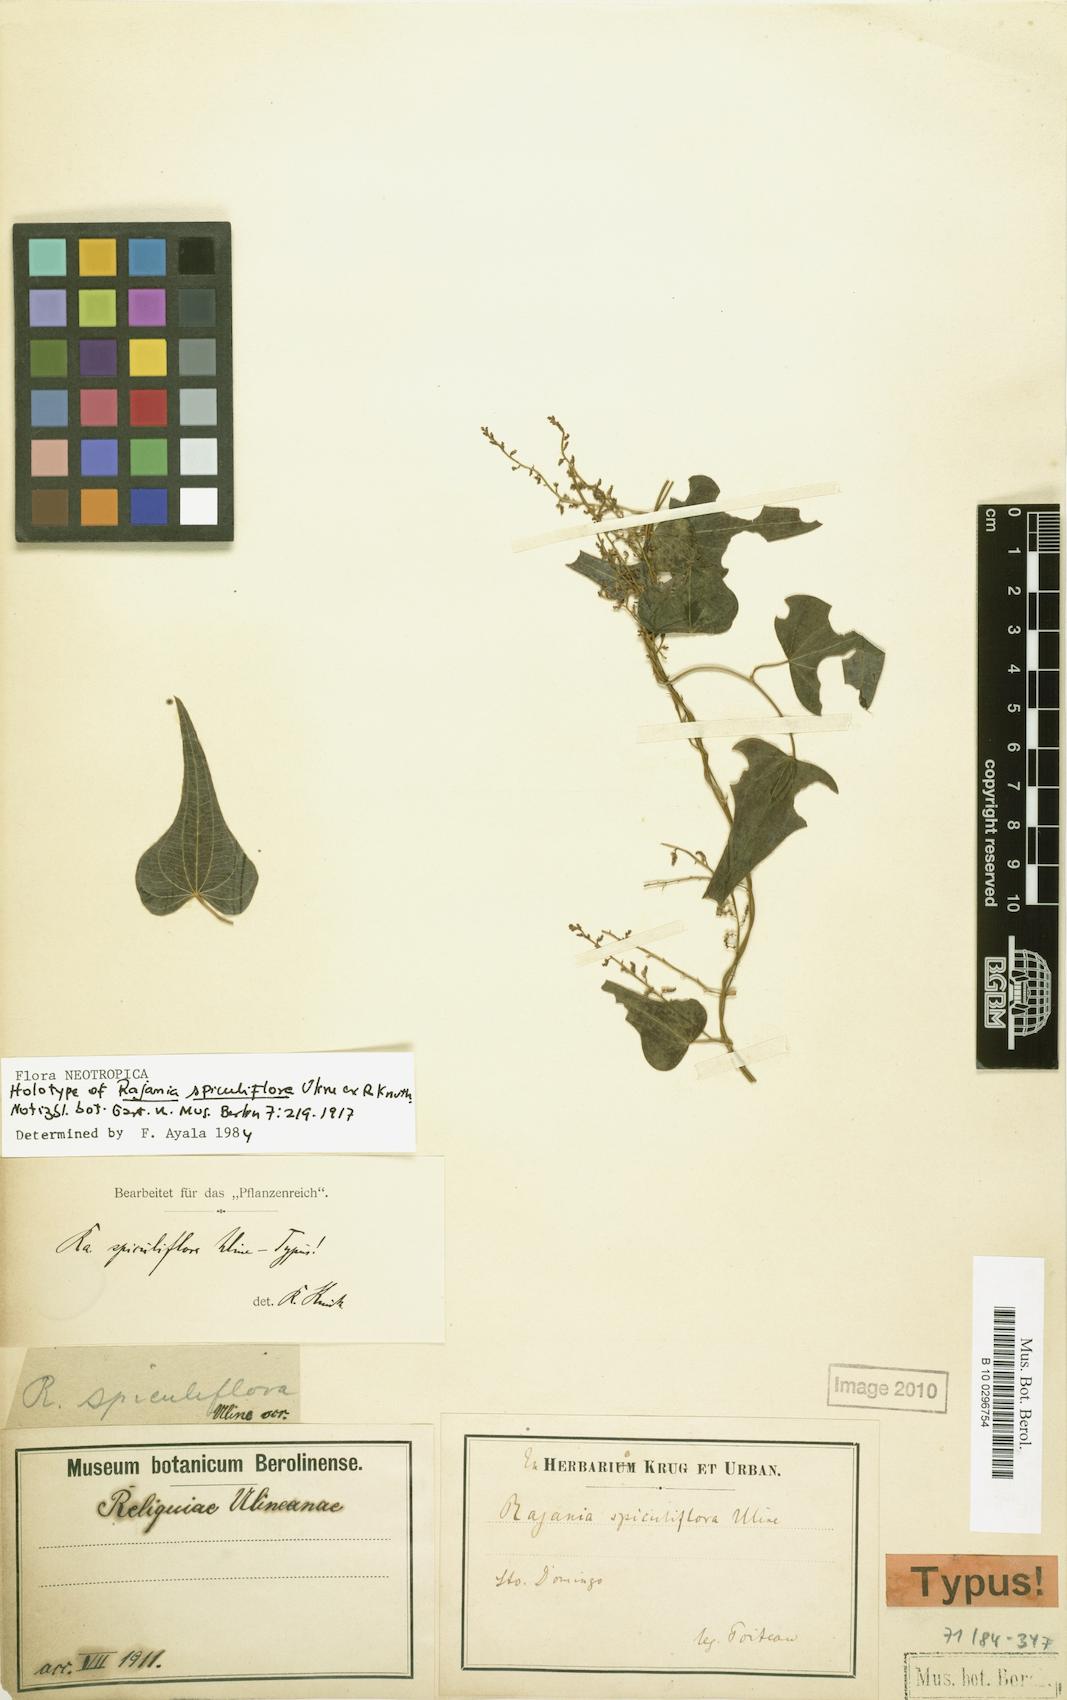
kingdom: Plantae
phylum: Tracheophyta
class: Liliopsida
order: Dioscoreales
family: Dioscoreaceae
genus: Dioscorea
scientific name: Dioscorea hyalinomarginata
